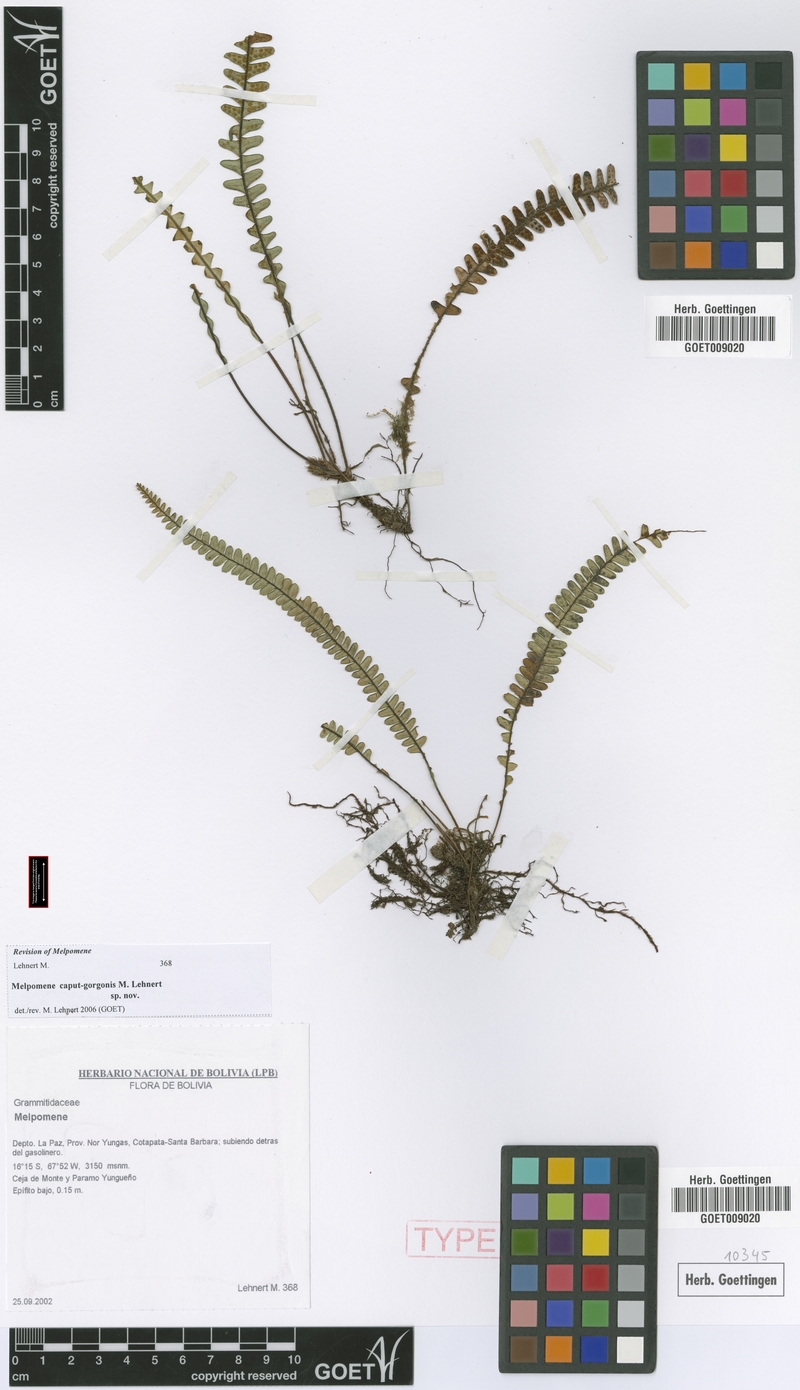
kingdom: Plantae
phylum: Tracheophyta
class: Polypodiopsida
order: Polypodiales
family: Polypodiaceae
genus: Melpomene
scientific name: Melpomene caput-gorgonis
